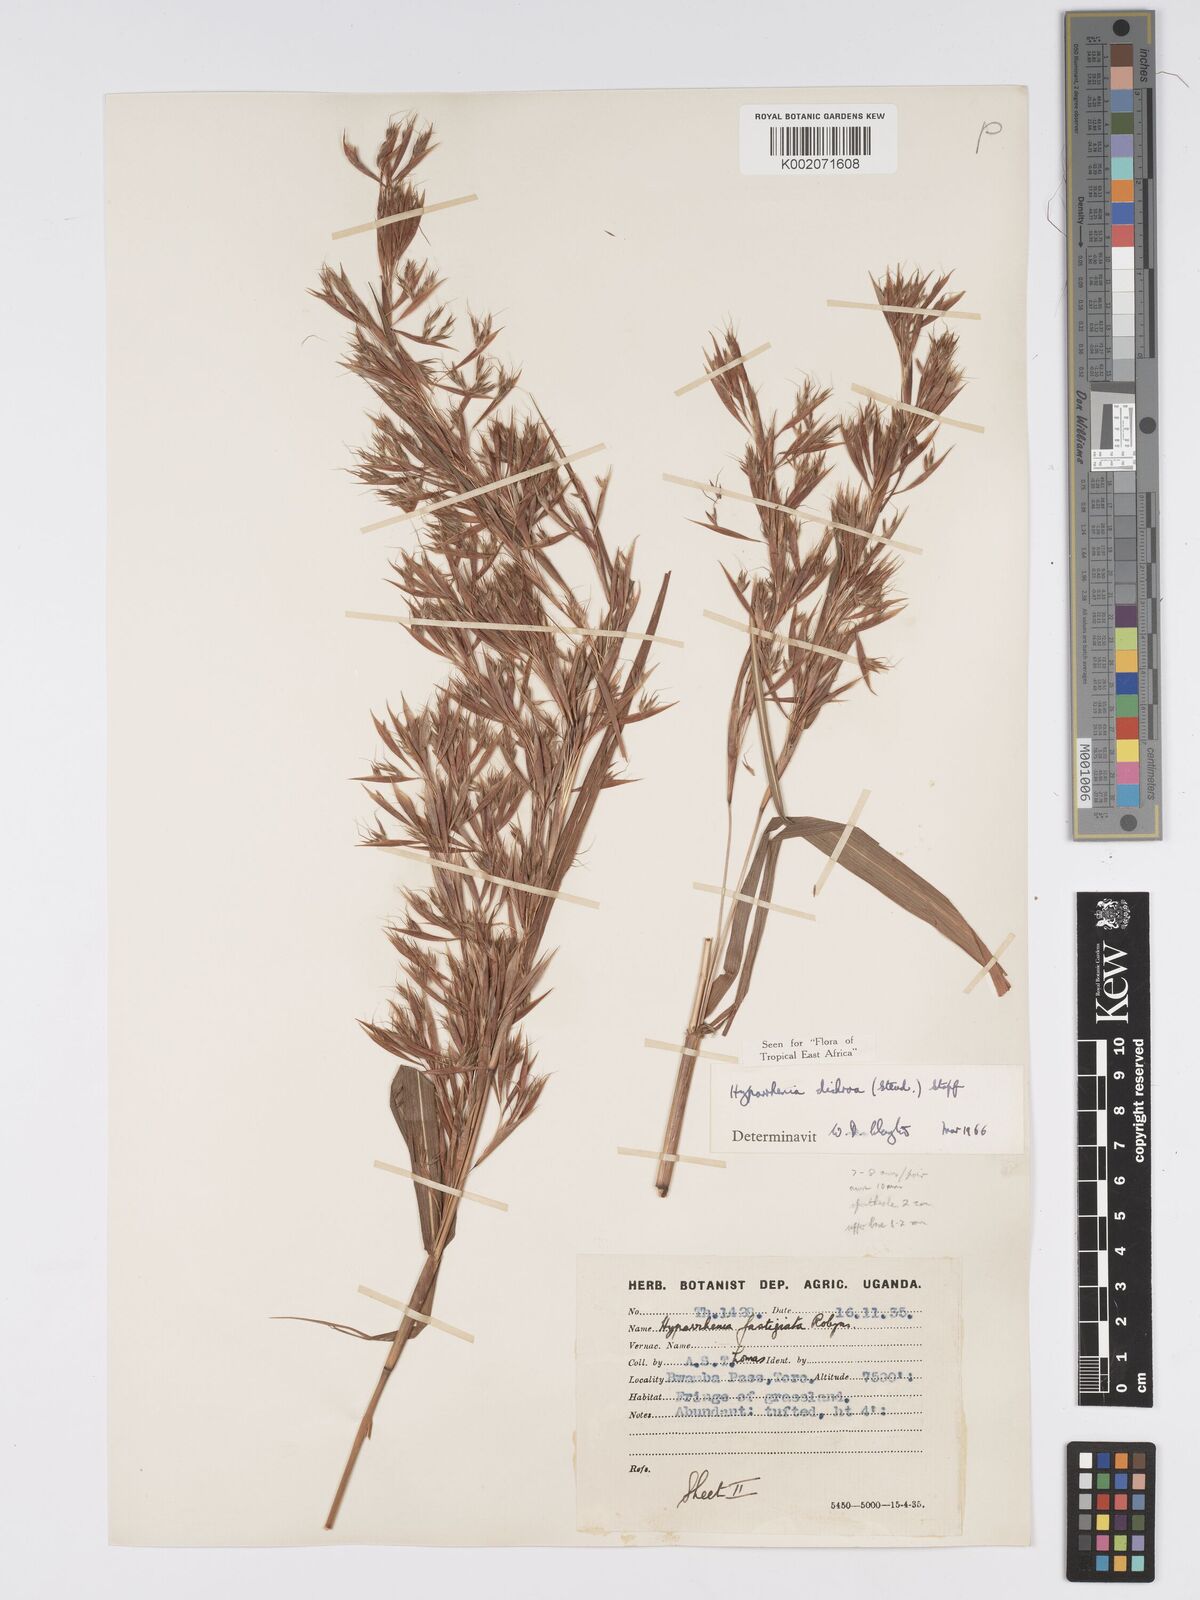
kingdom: Plantae
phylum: Tracheophyta
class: Liliopsida
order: Poales
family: Poaceae
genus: Hyparrhenia
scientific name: Hyparrhenia dichroa
